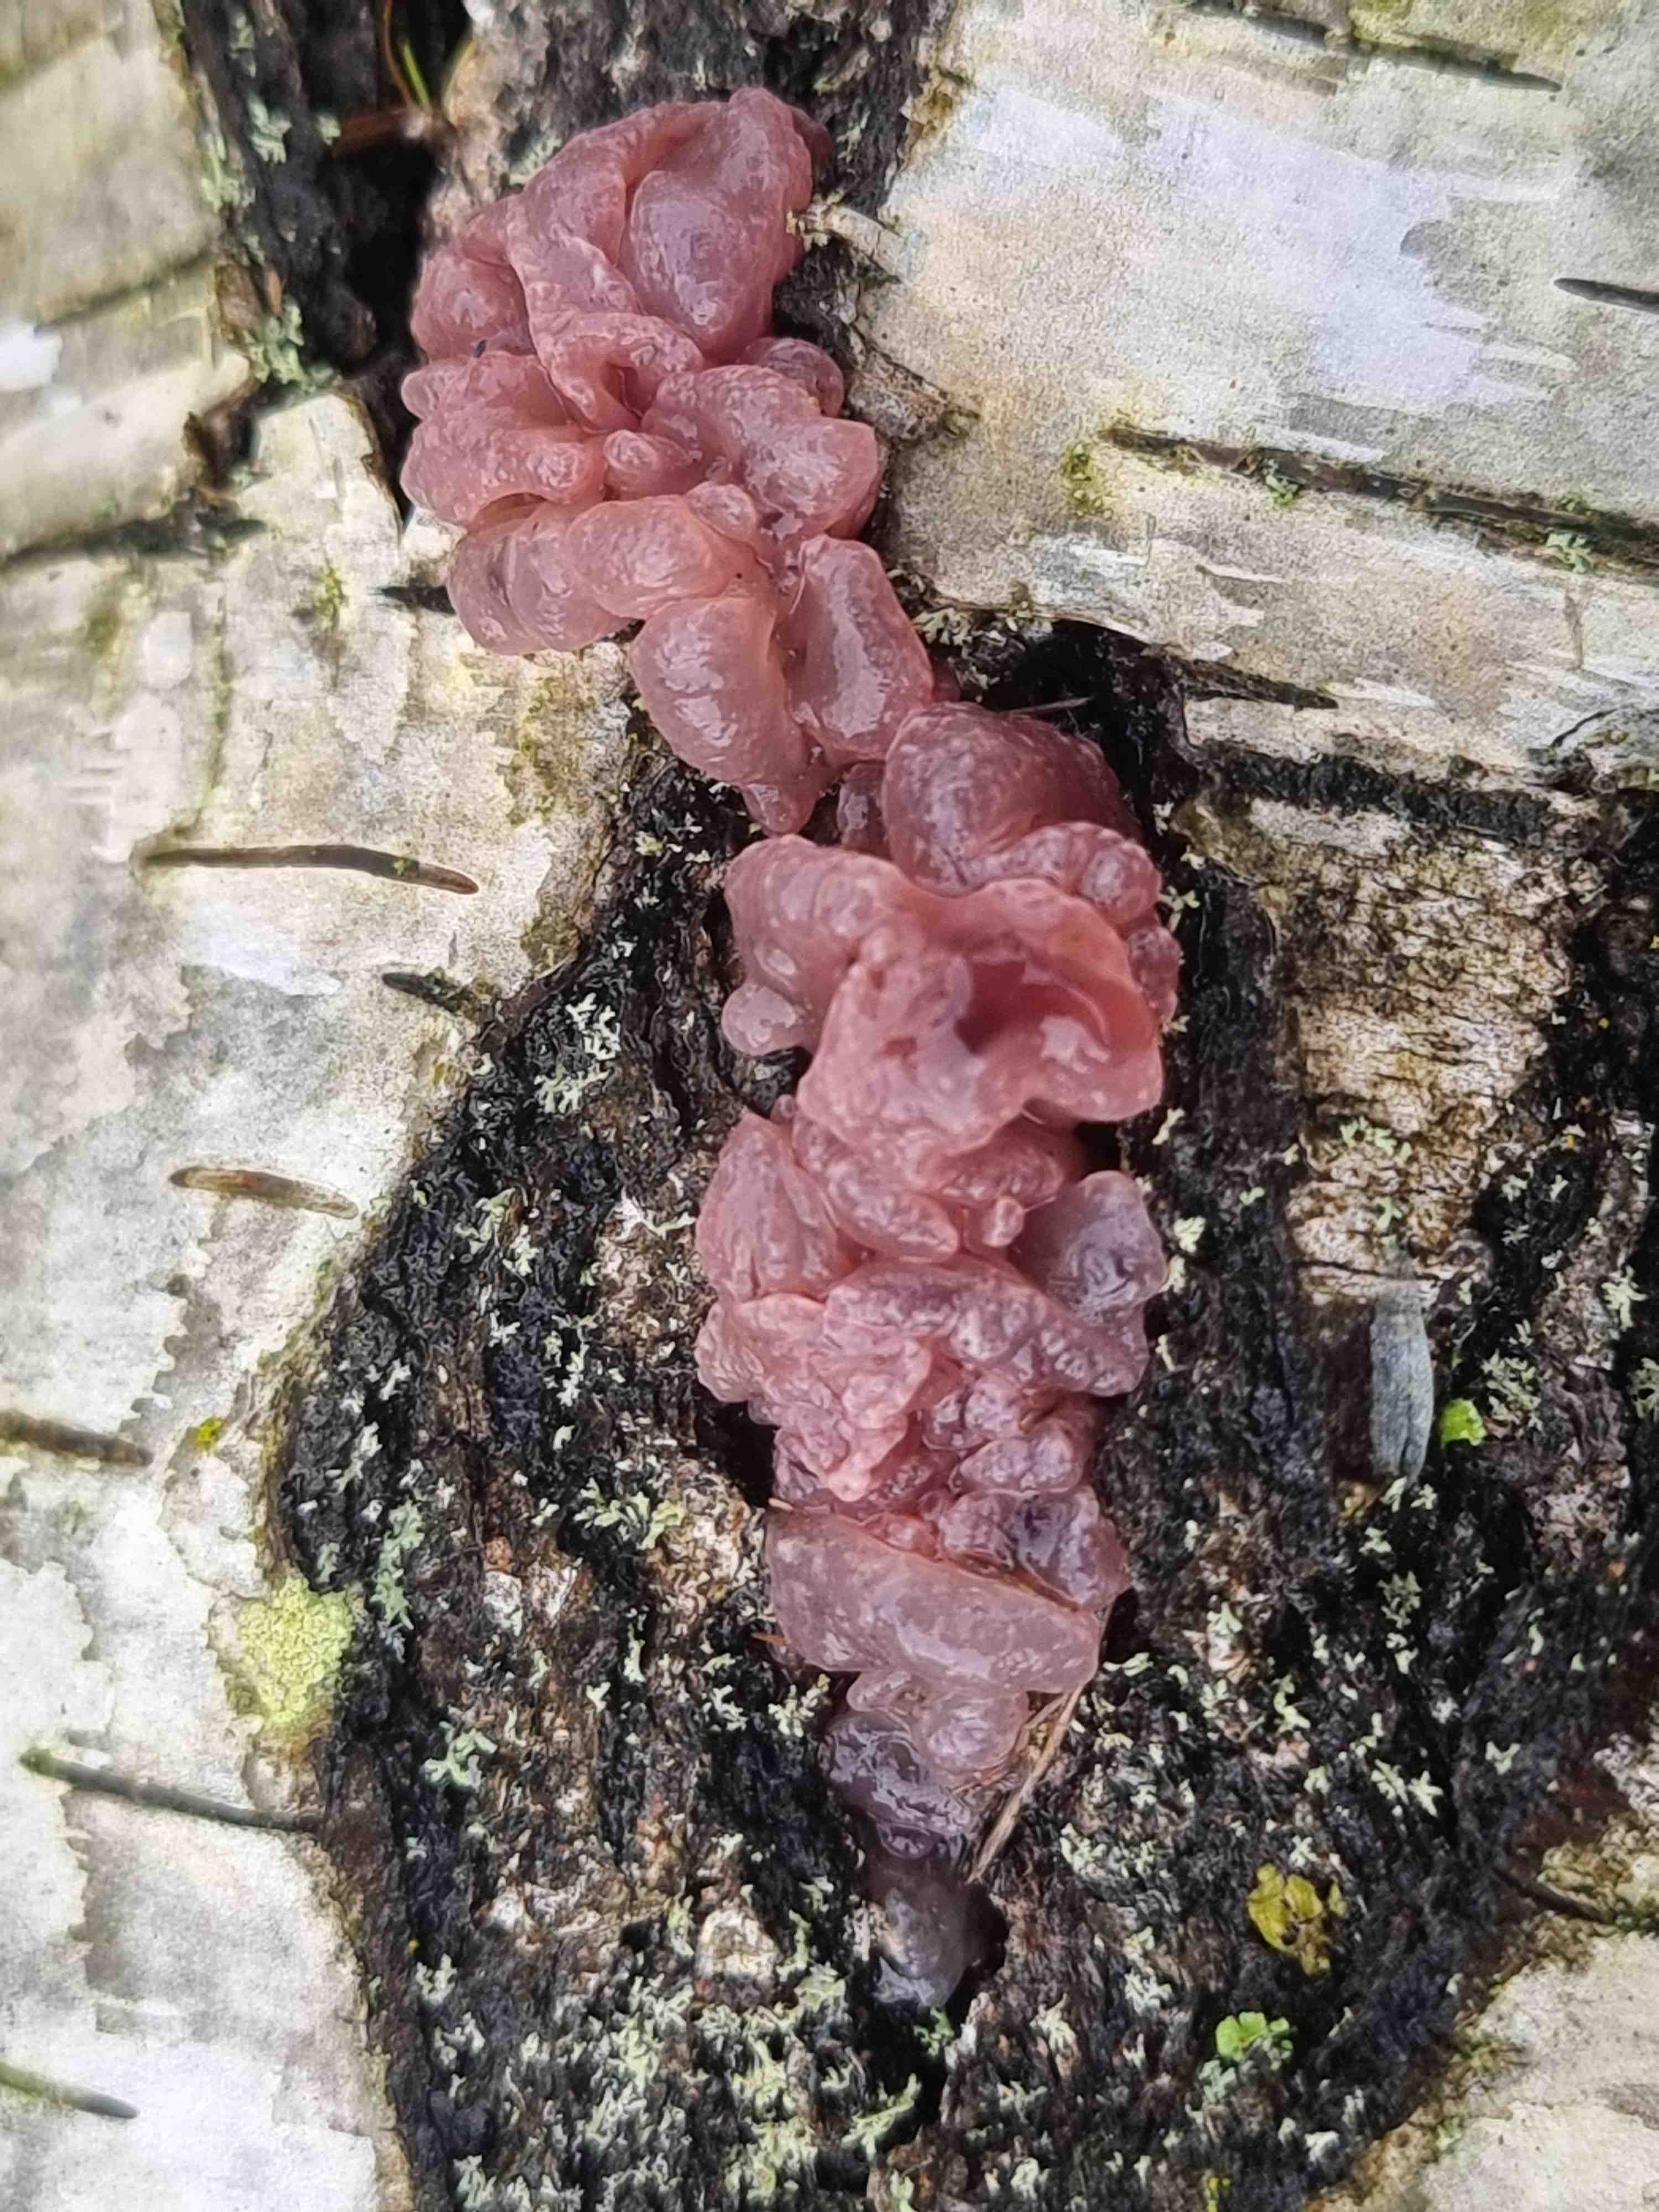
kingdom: Fungi
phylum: Ascomycota
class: Leotiomycetes
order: Helotiales
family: Gelatinodiscaceae
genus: Ascocoryne
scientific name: Ascocoryne sarcoides
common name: rødlilla sejskive
